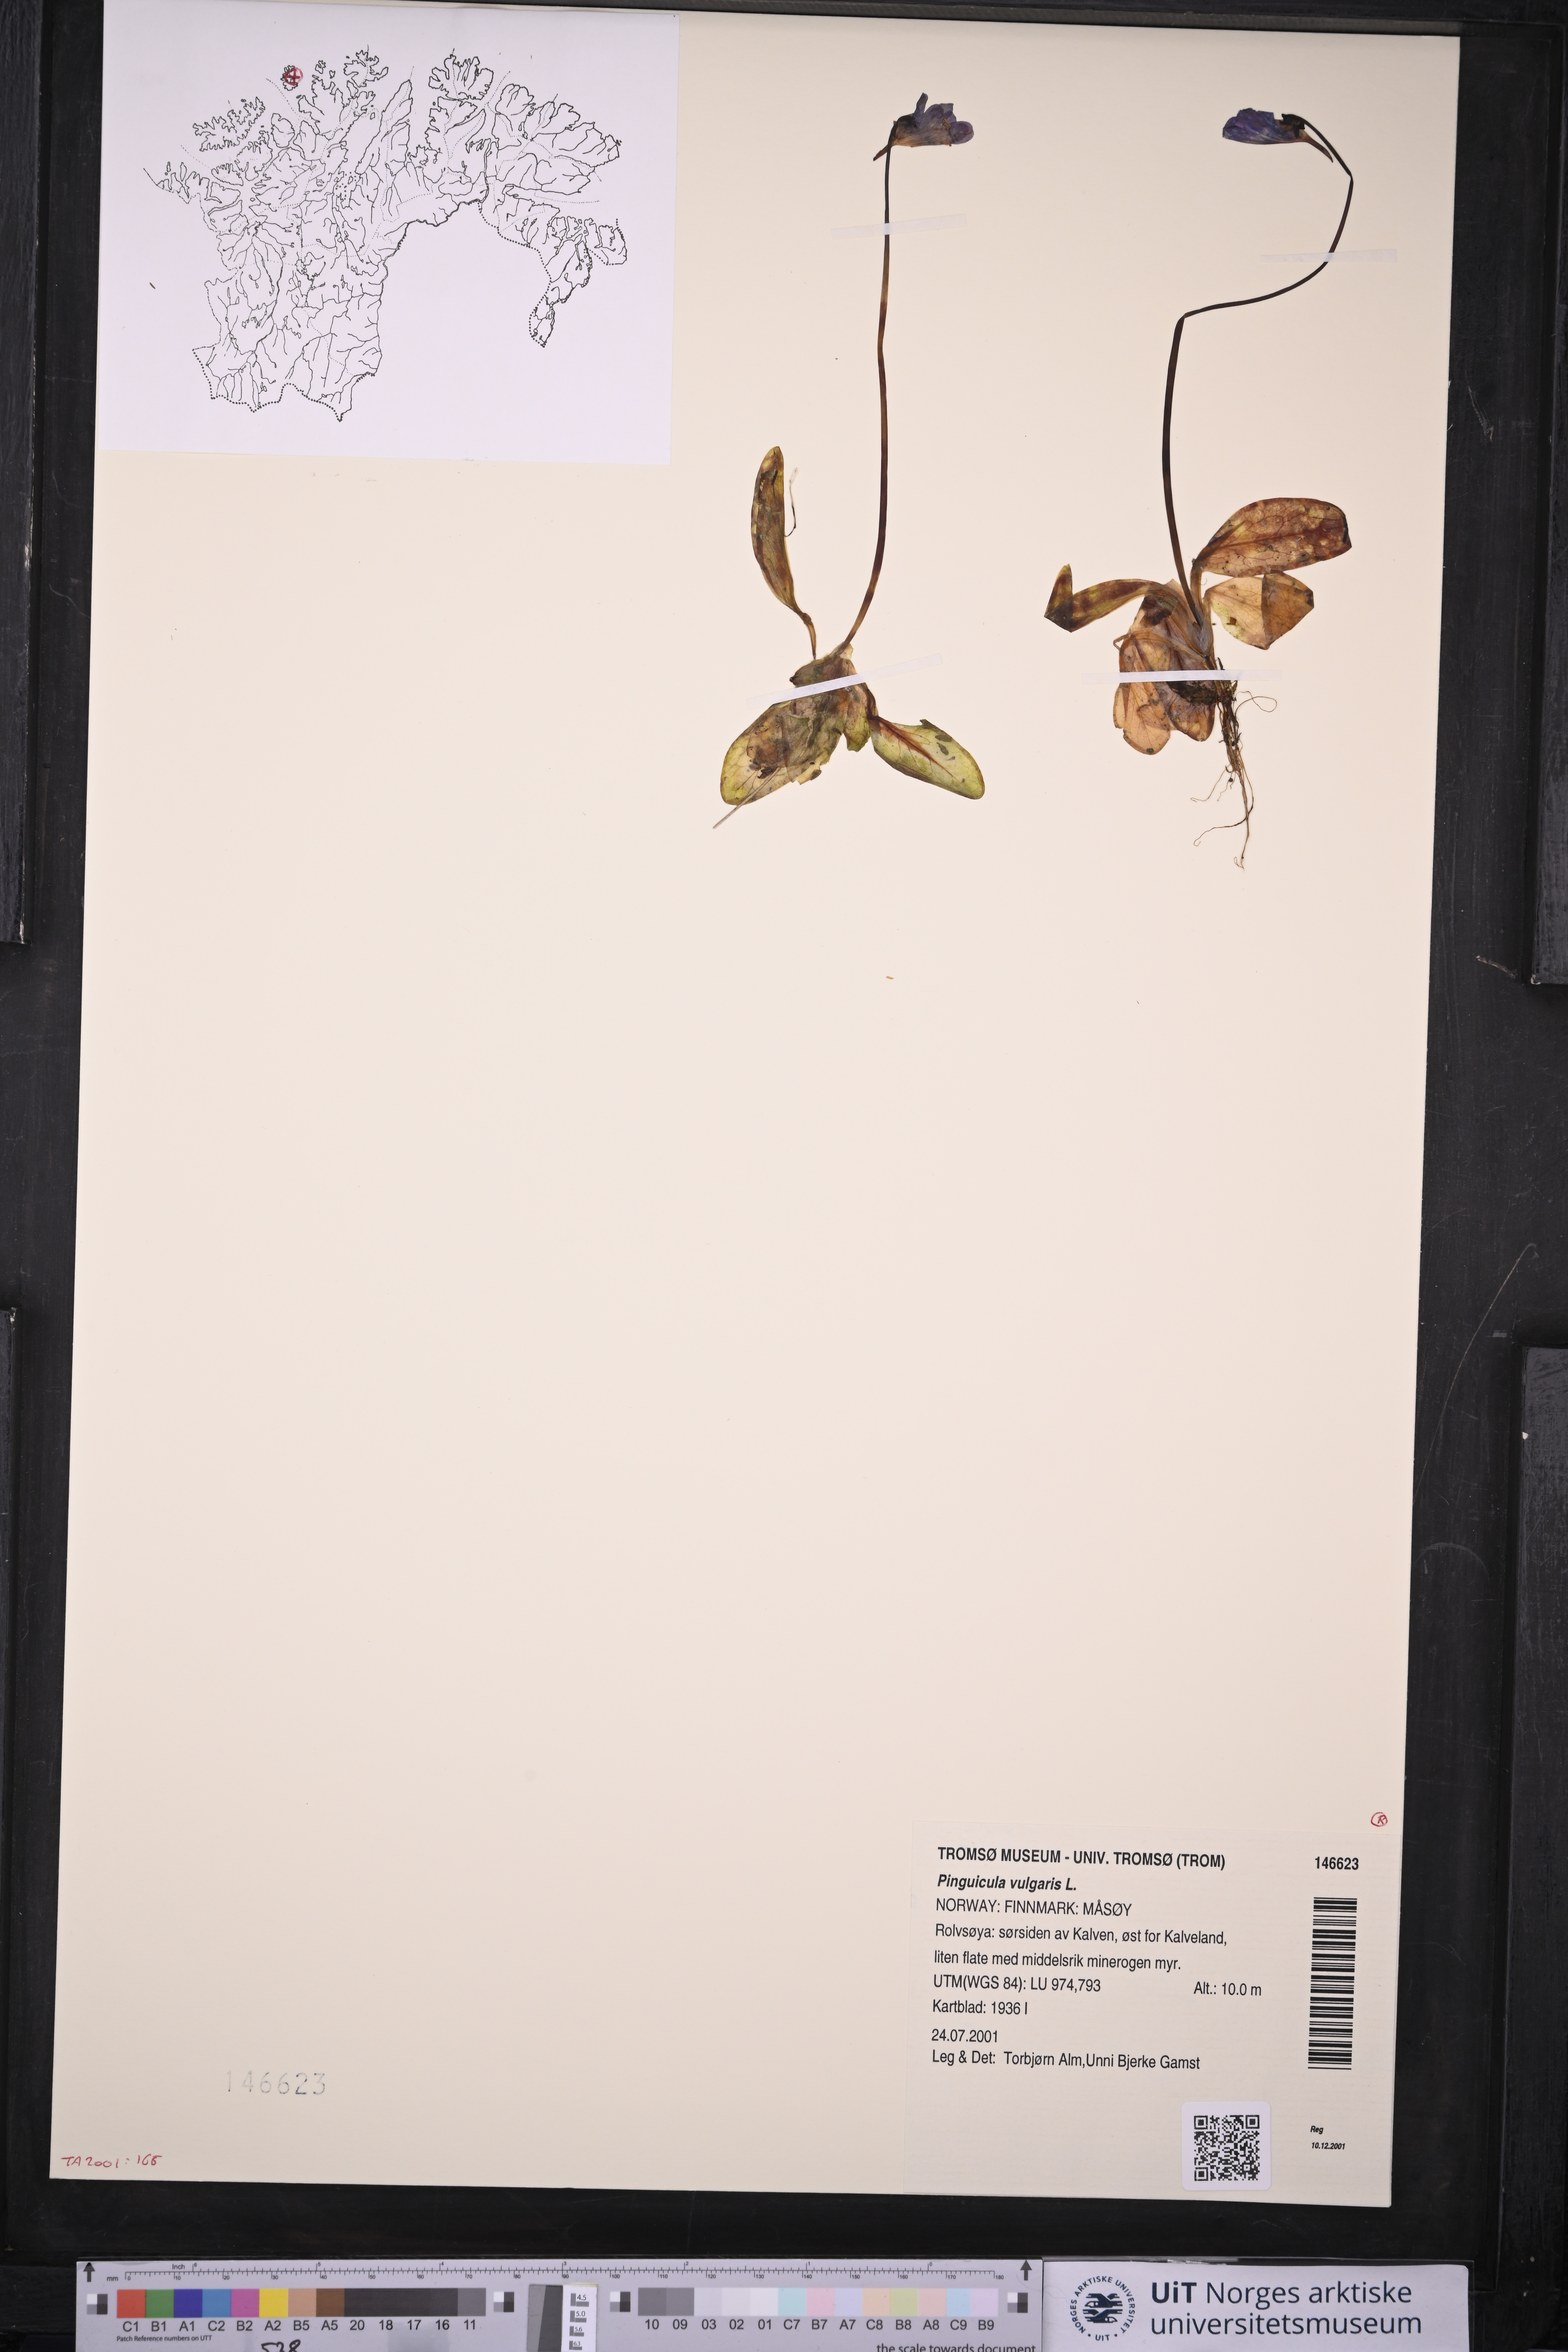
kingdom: Plantae
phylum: Tracheophyta
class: Magnoliopsida
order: Lamiales
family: Lentibulariaceae
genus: Pinguicula
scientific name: Pinguicula vulgaris
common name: Common butterwort
